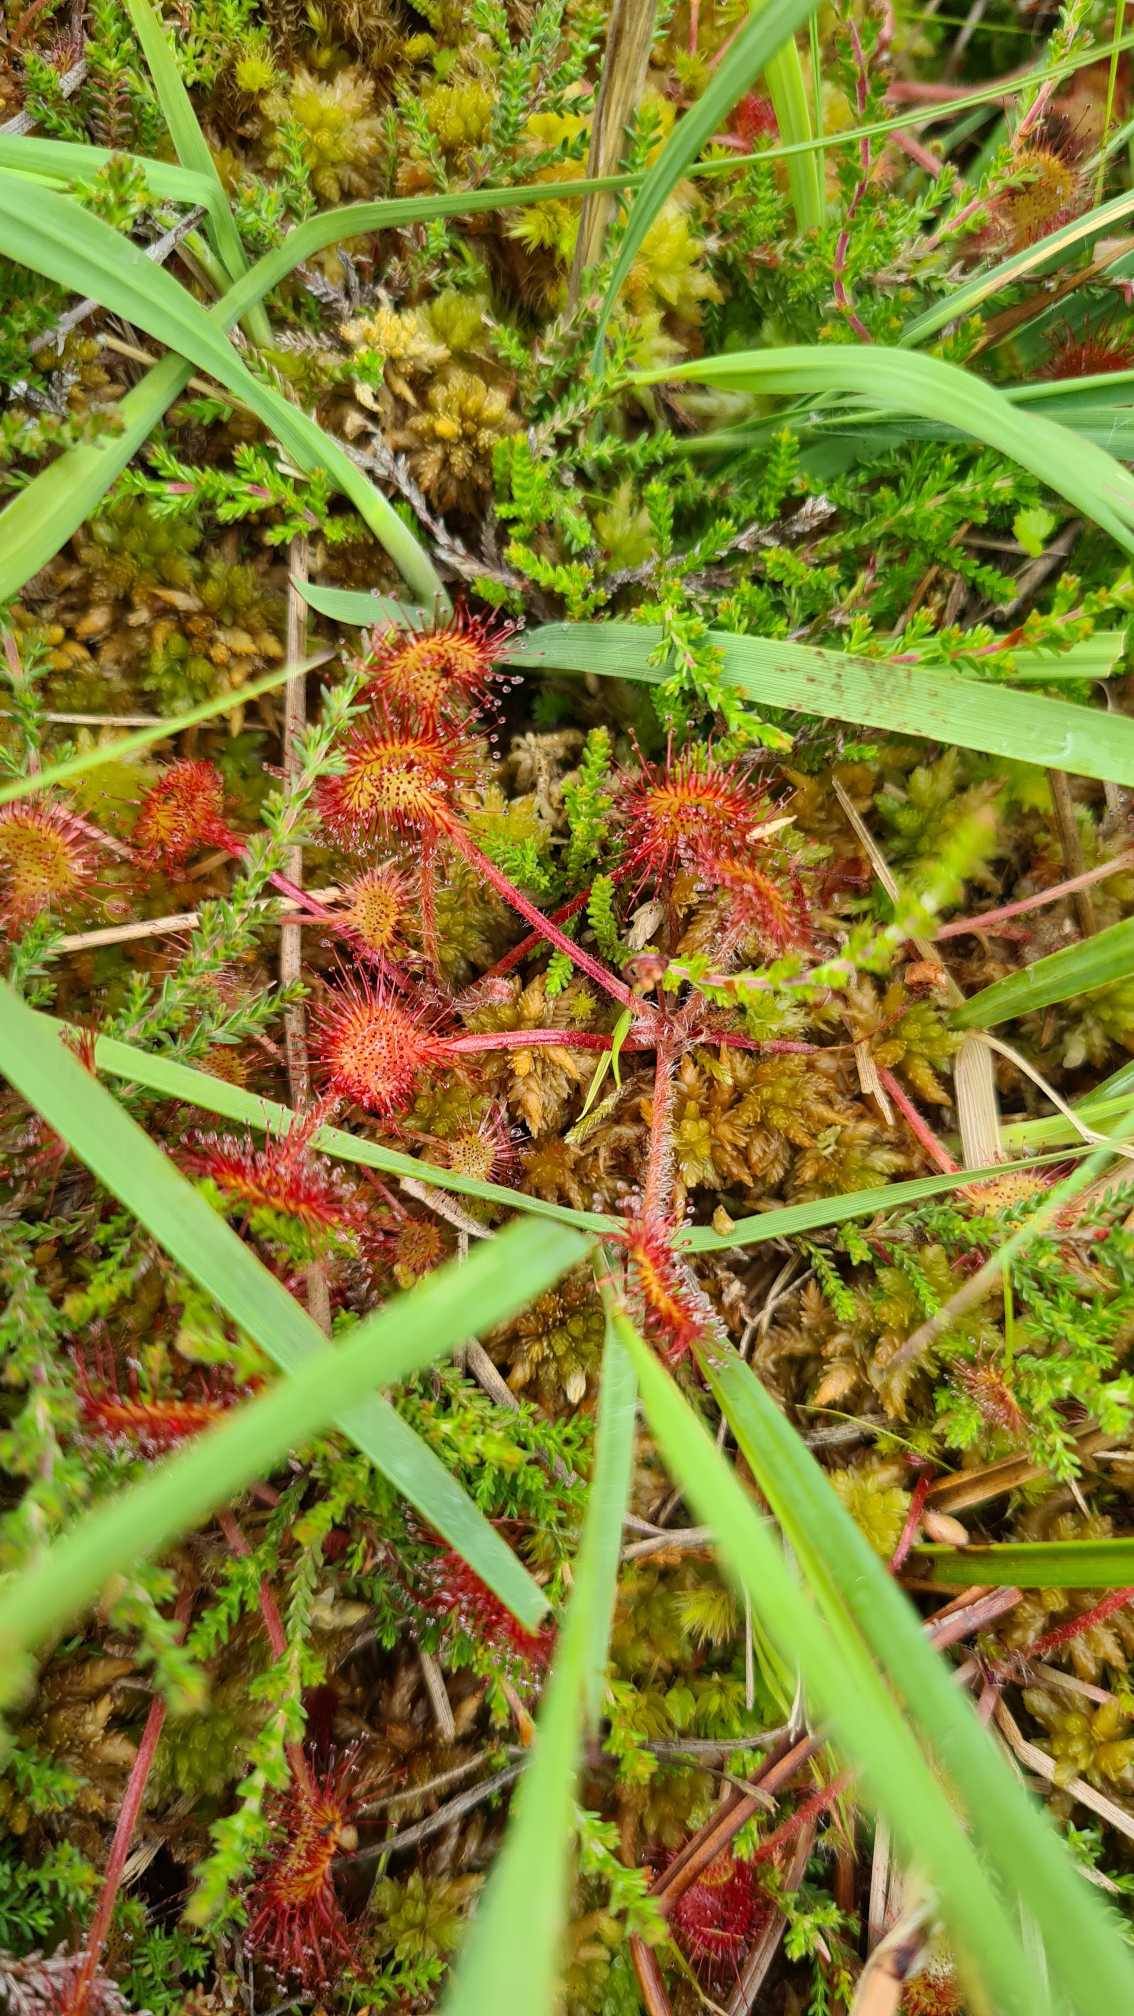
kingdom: Plantae
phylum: Tracheophyta
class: Magnoliopsida
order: Caryophyllales
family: Droseraceae
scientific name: Droseraceae
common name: Soldugfamilien
